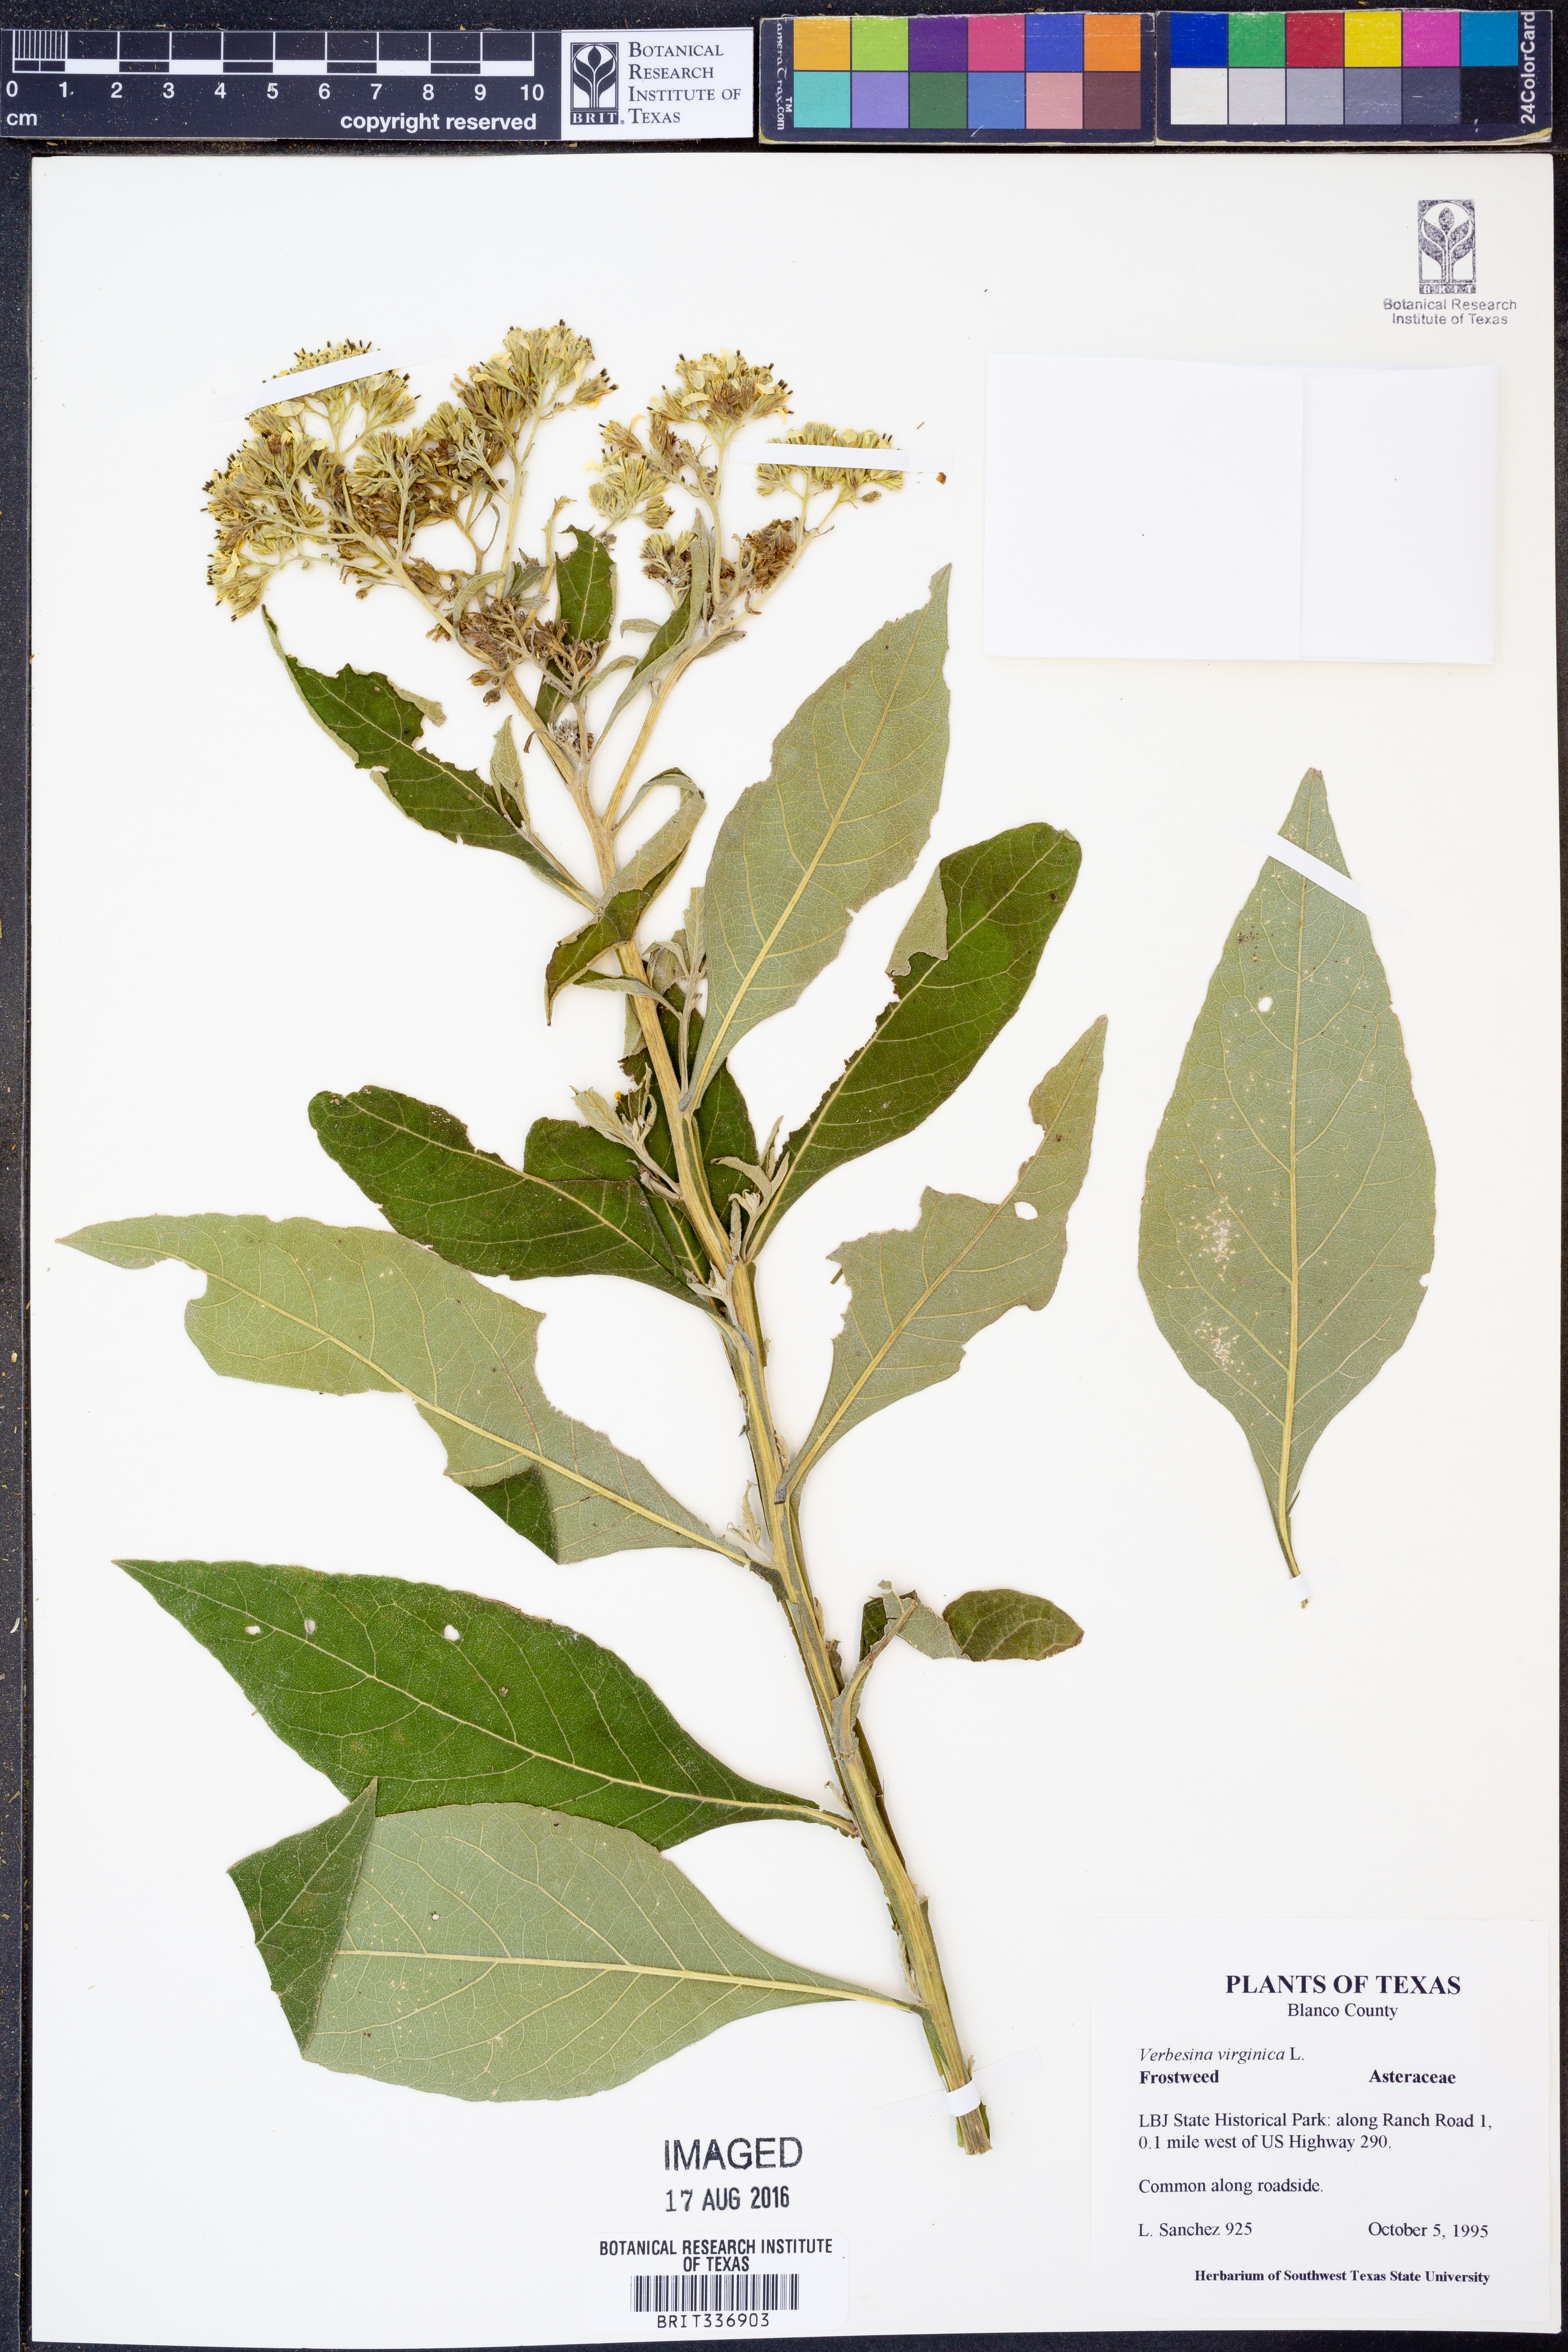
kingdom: Plantae
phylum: Tracheophyta
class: Magnoliopsida
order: Asterales
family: Asteraceae
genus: Verbesina
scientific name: Verbesina virginica
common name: Frostweed
